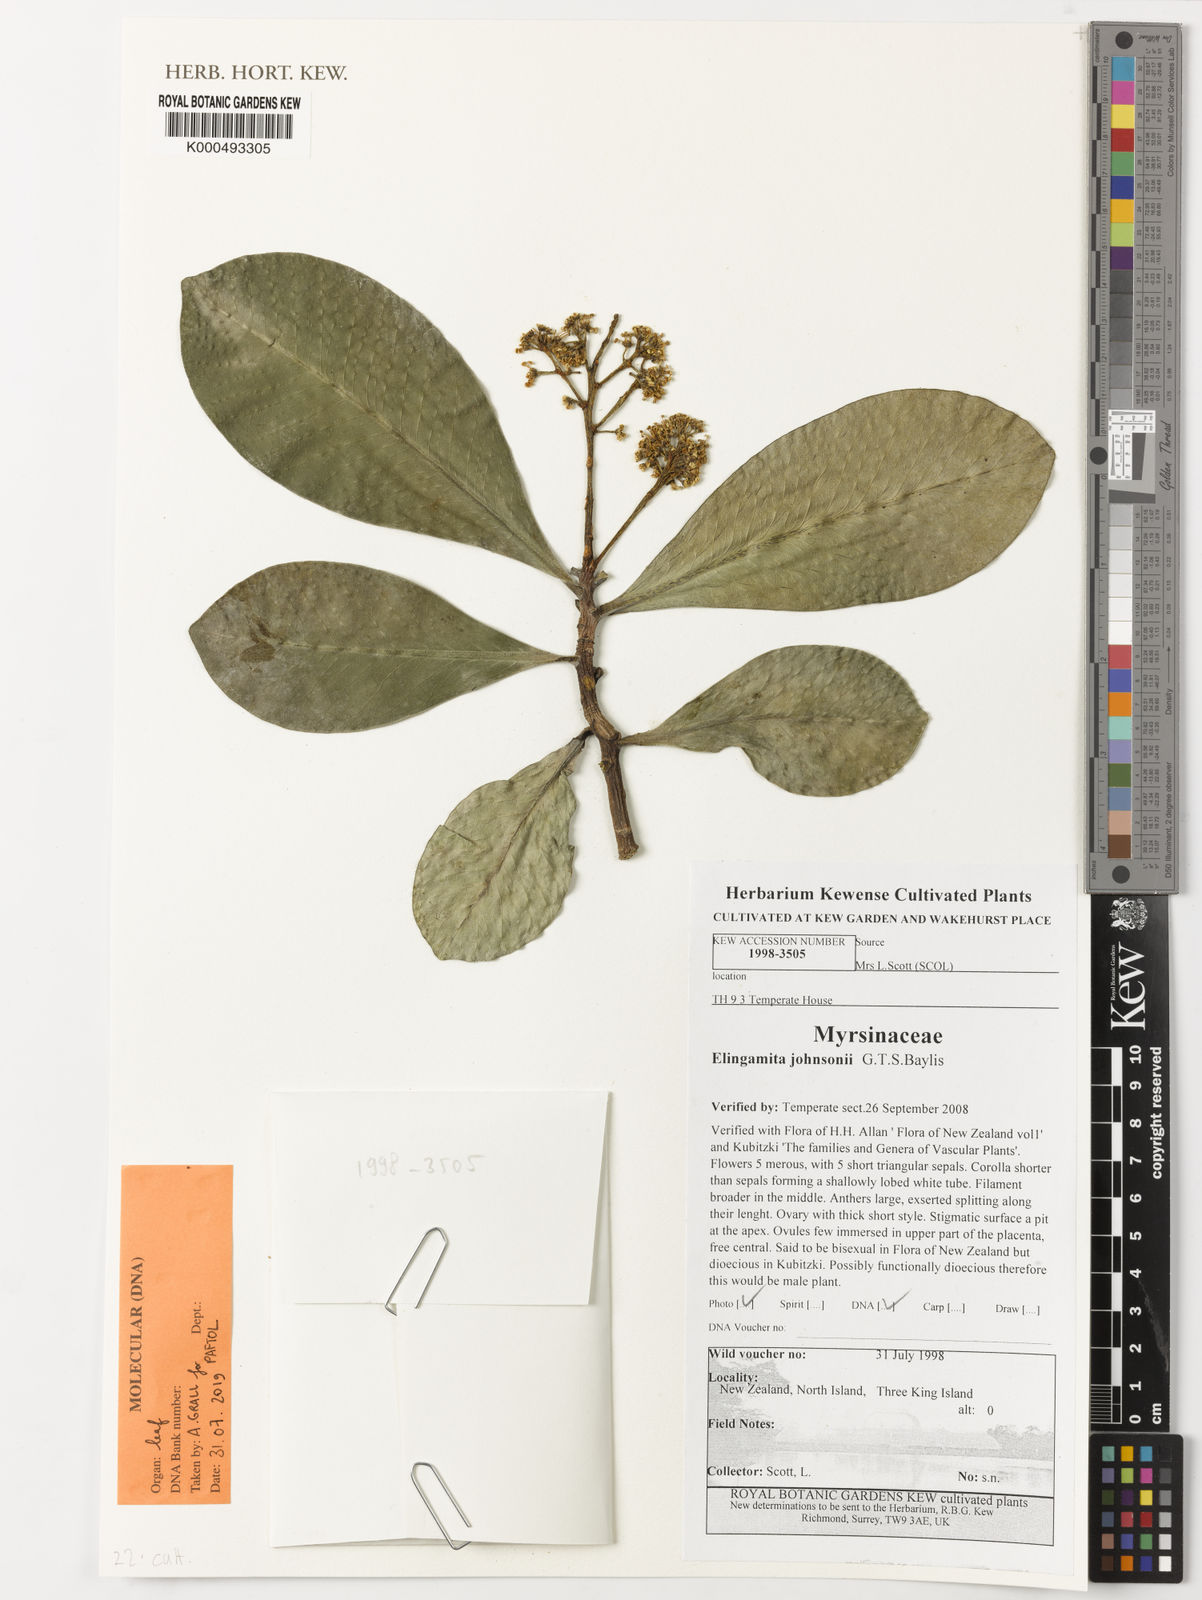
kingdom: Plantae
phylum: Tracheophyta
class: Magnoliopsida
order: Ericales
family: Primulaceae
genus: Elingamita
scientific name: Elingamita johnsonii
